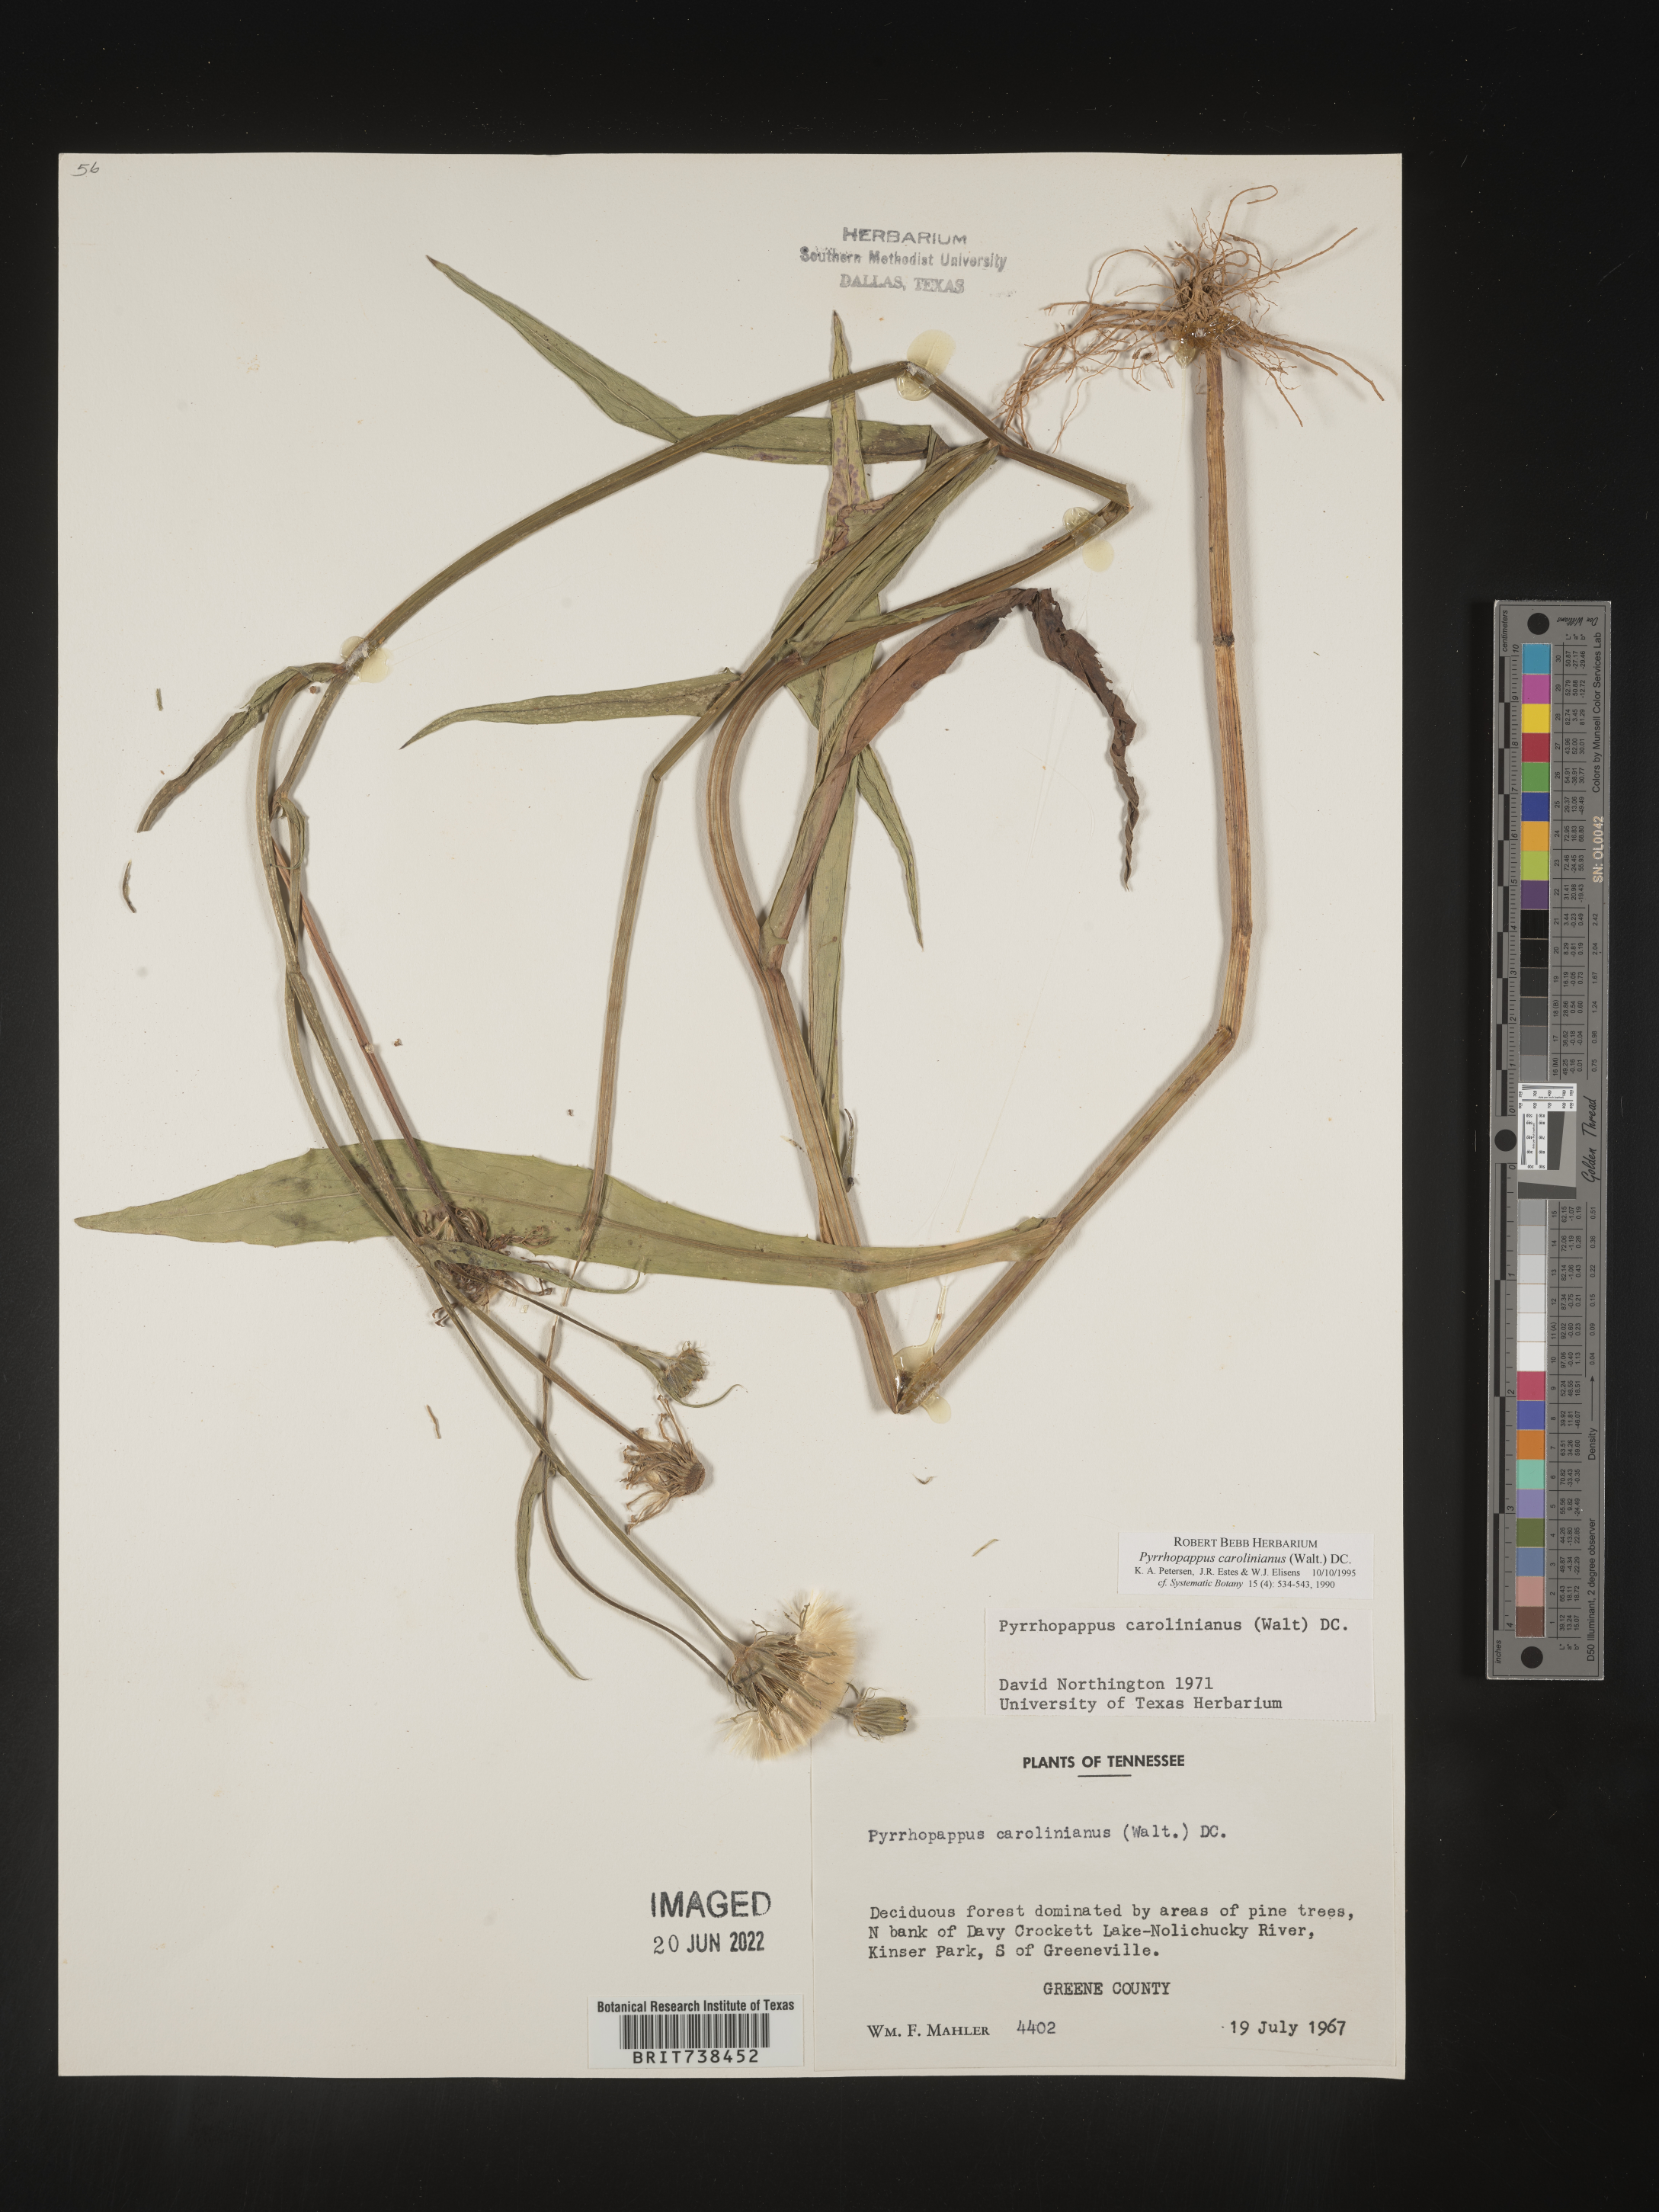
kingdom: Plantae
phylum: Tracheophyta
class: Magnoliopsida
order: Asterales
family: Asteraceae
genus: Pyrrhopappus
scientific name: Pyrrhopappus carolinianus
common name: Carolina desert-chicory
